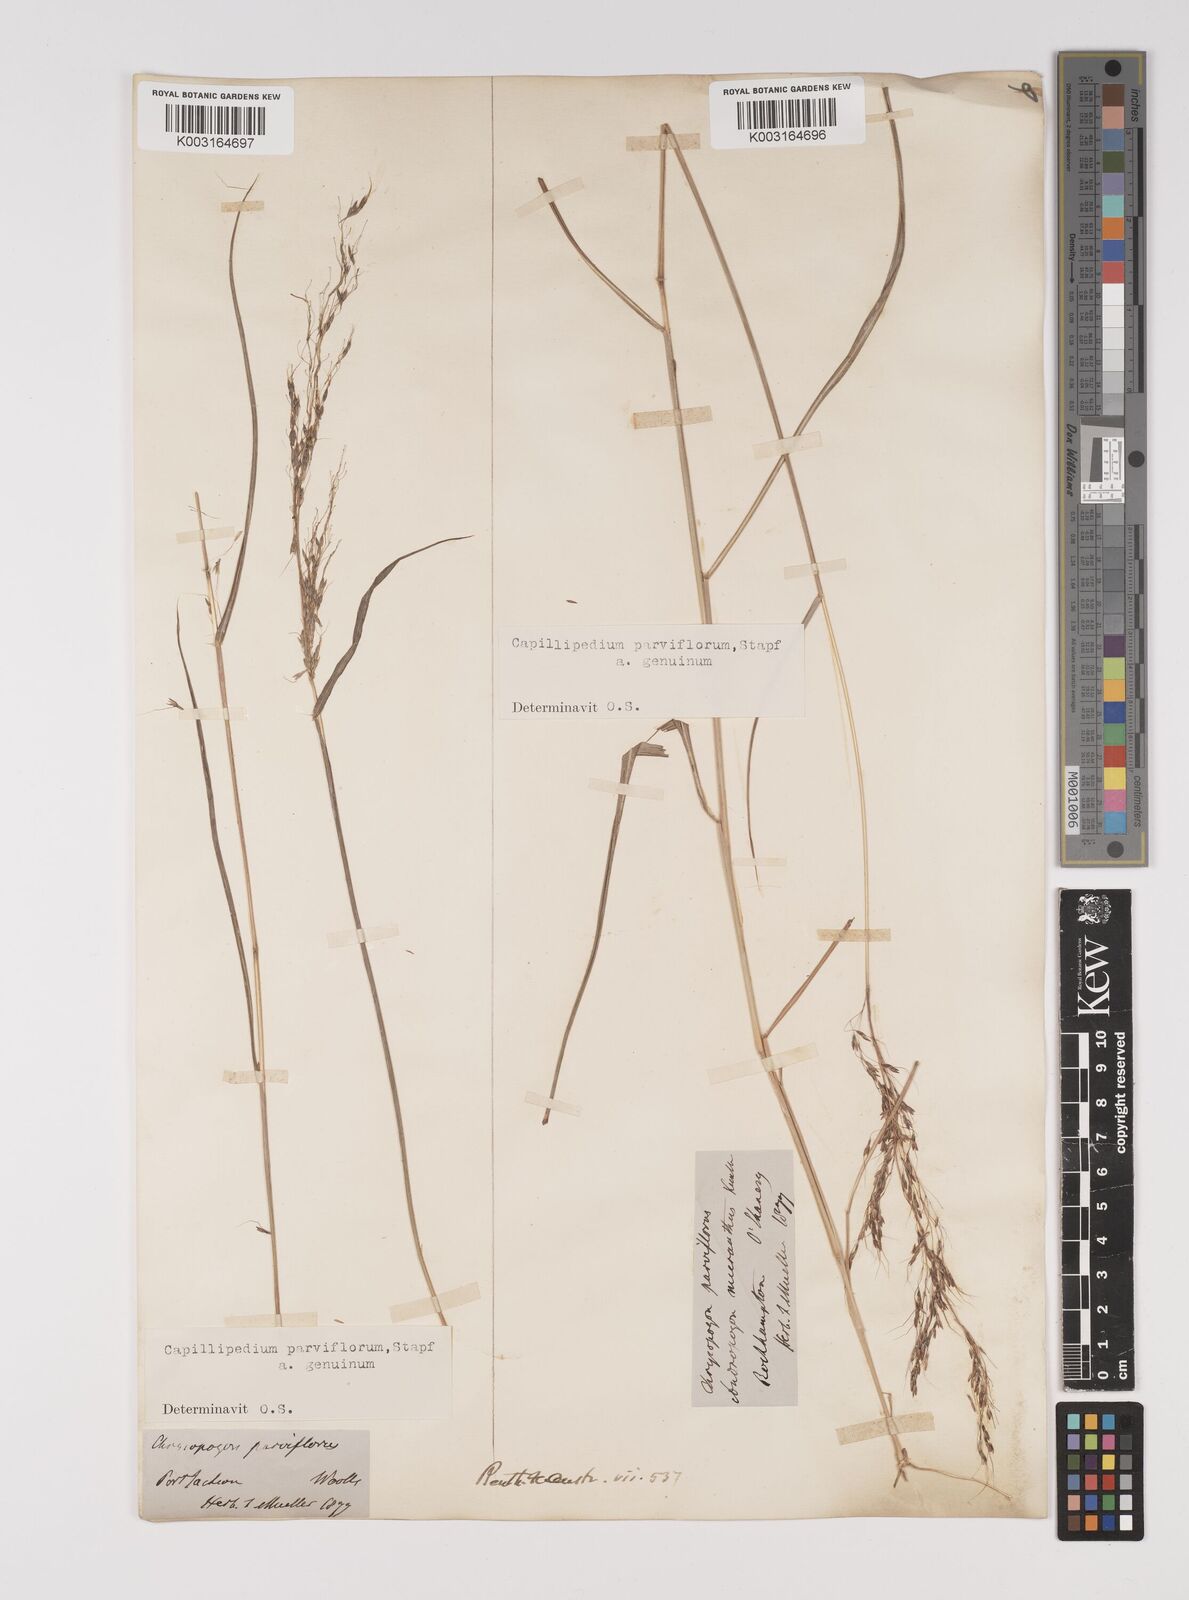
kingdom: Plantae
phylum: Tracheophyta
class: Liliopsida
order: Poales
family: Poaceae
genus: Capillipedium
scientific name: Capillipedium parviflorum
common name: Golden-beard
